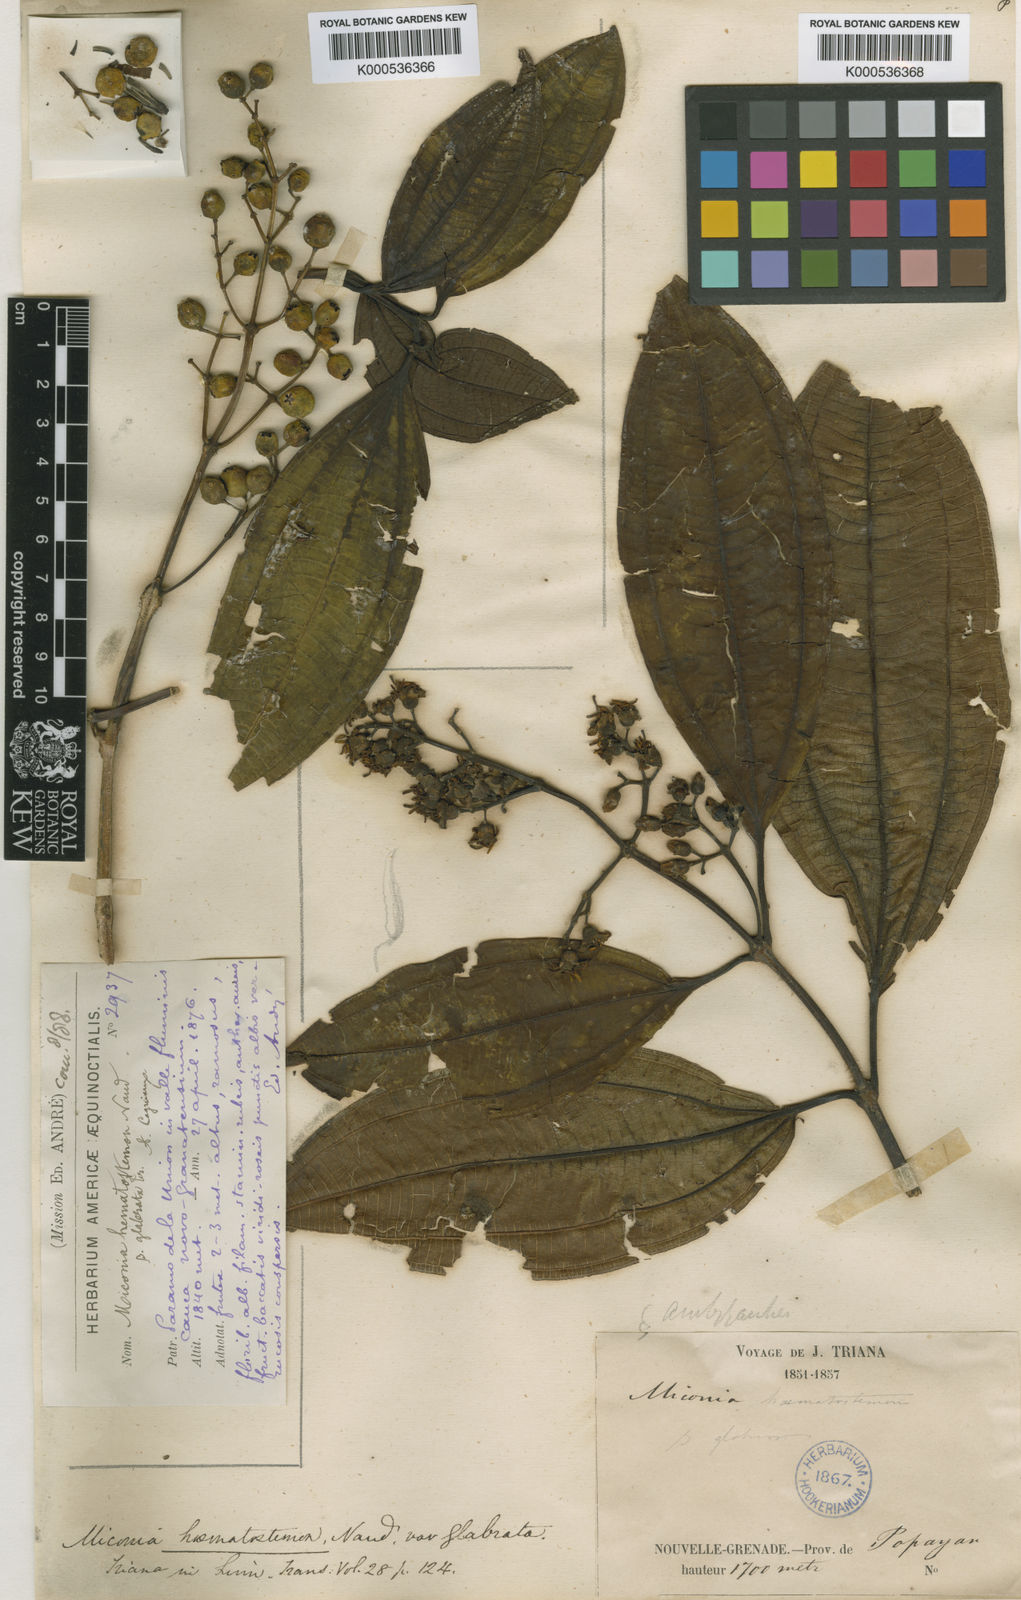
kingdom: Plantae
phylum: Tracheophyta
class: Magnoliopsida
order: Myrtales
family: Melastomataceae
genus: Miconia
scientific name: Miconia hematostemon
